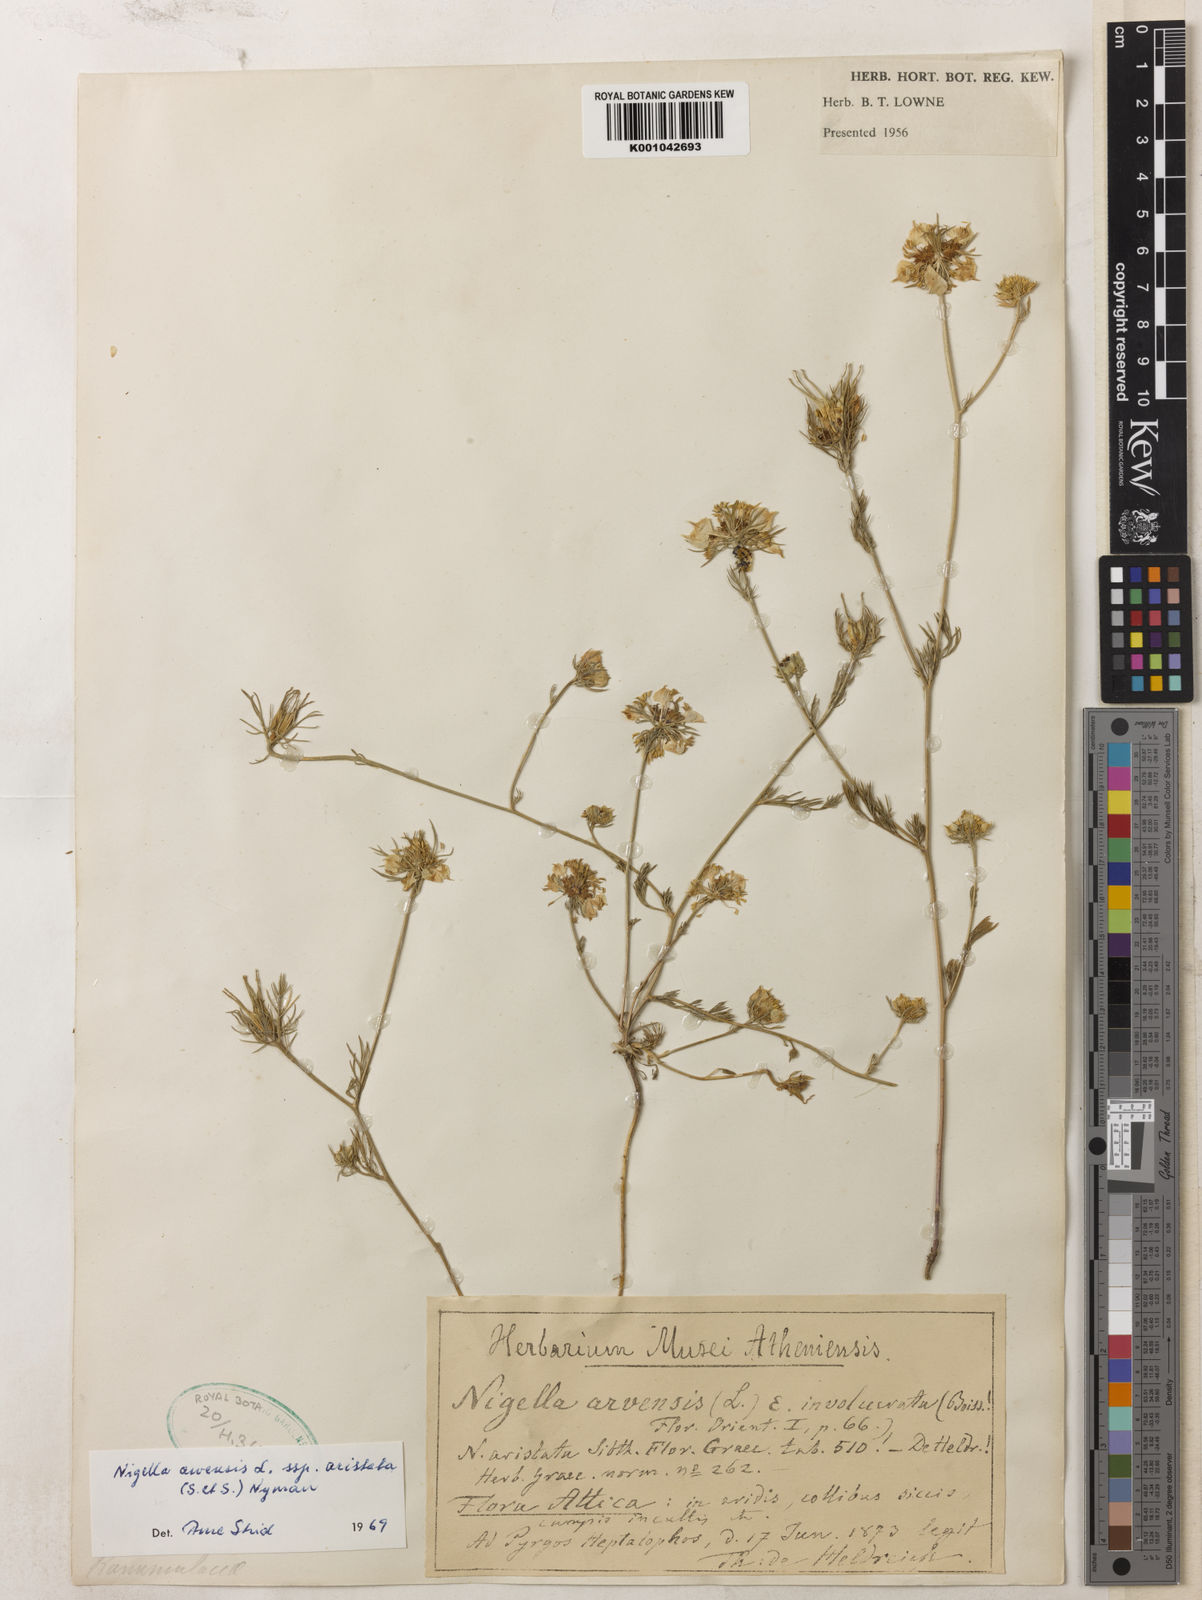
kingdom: Plantae
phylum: Tracheophyta
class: Magnoliopsida
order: Ranunculales
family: Ranunculaceae
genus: Nigella
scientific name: Nigella arvensis
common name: Wild fennel-flower
